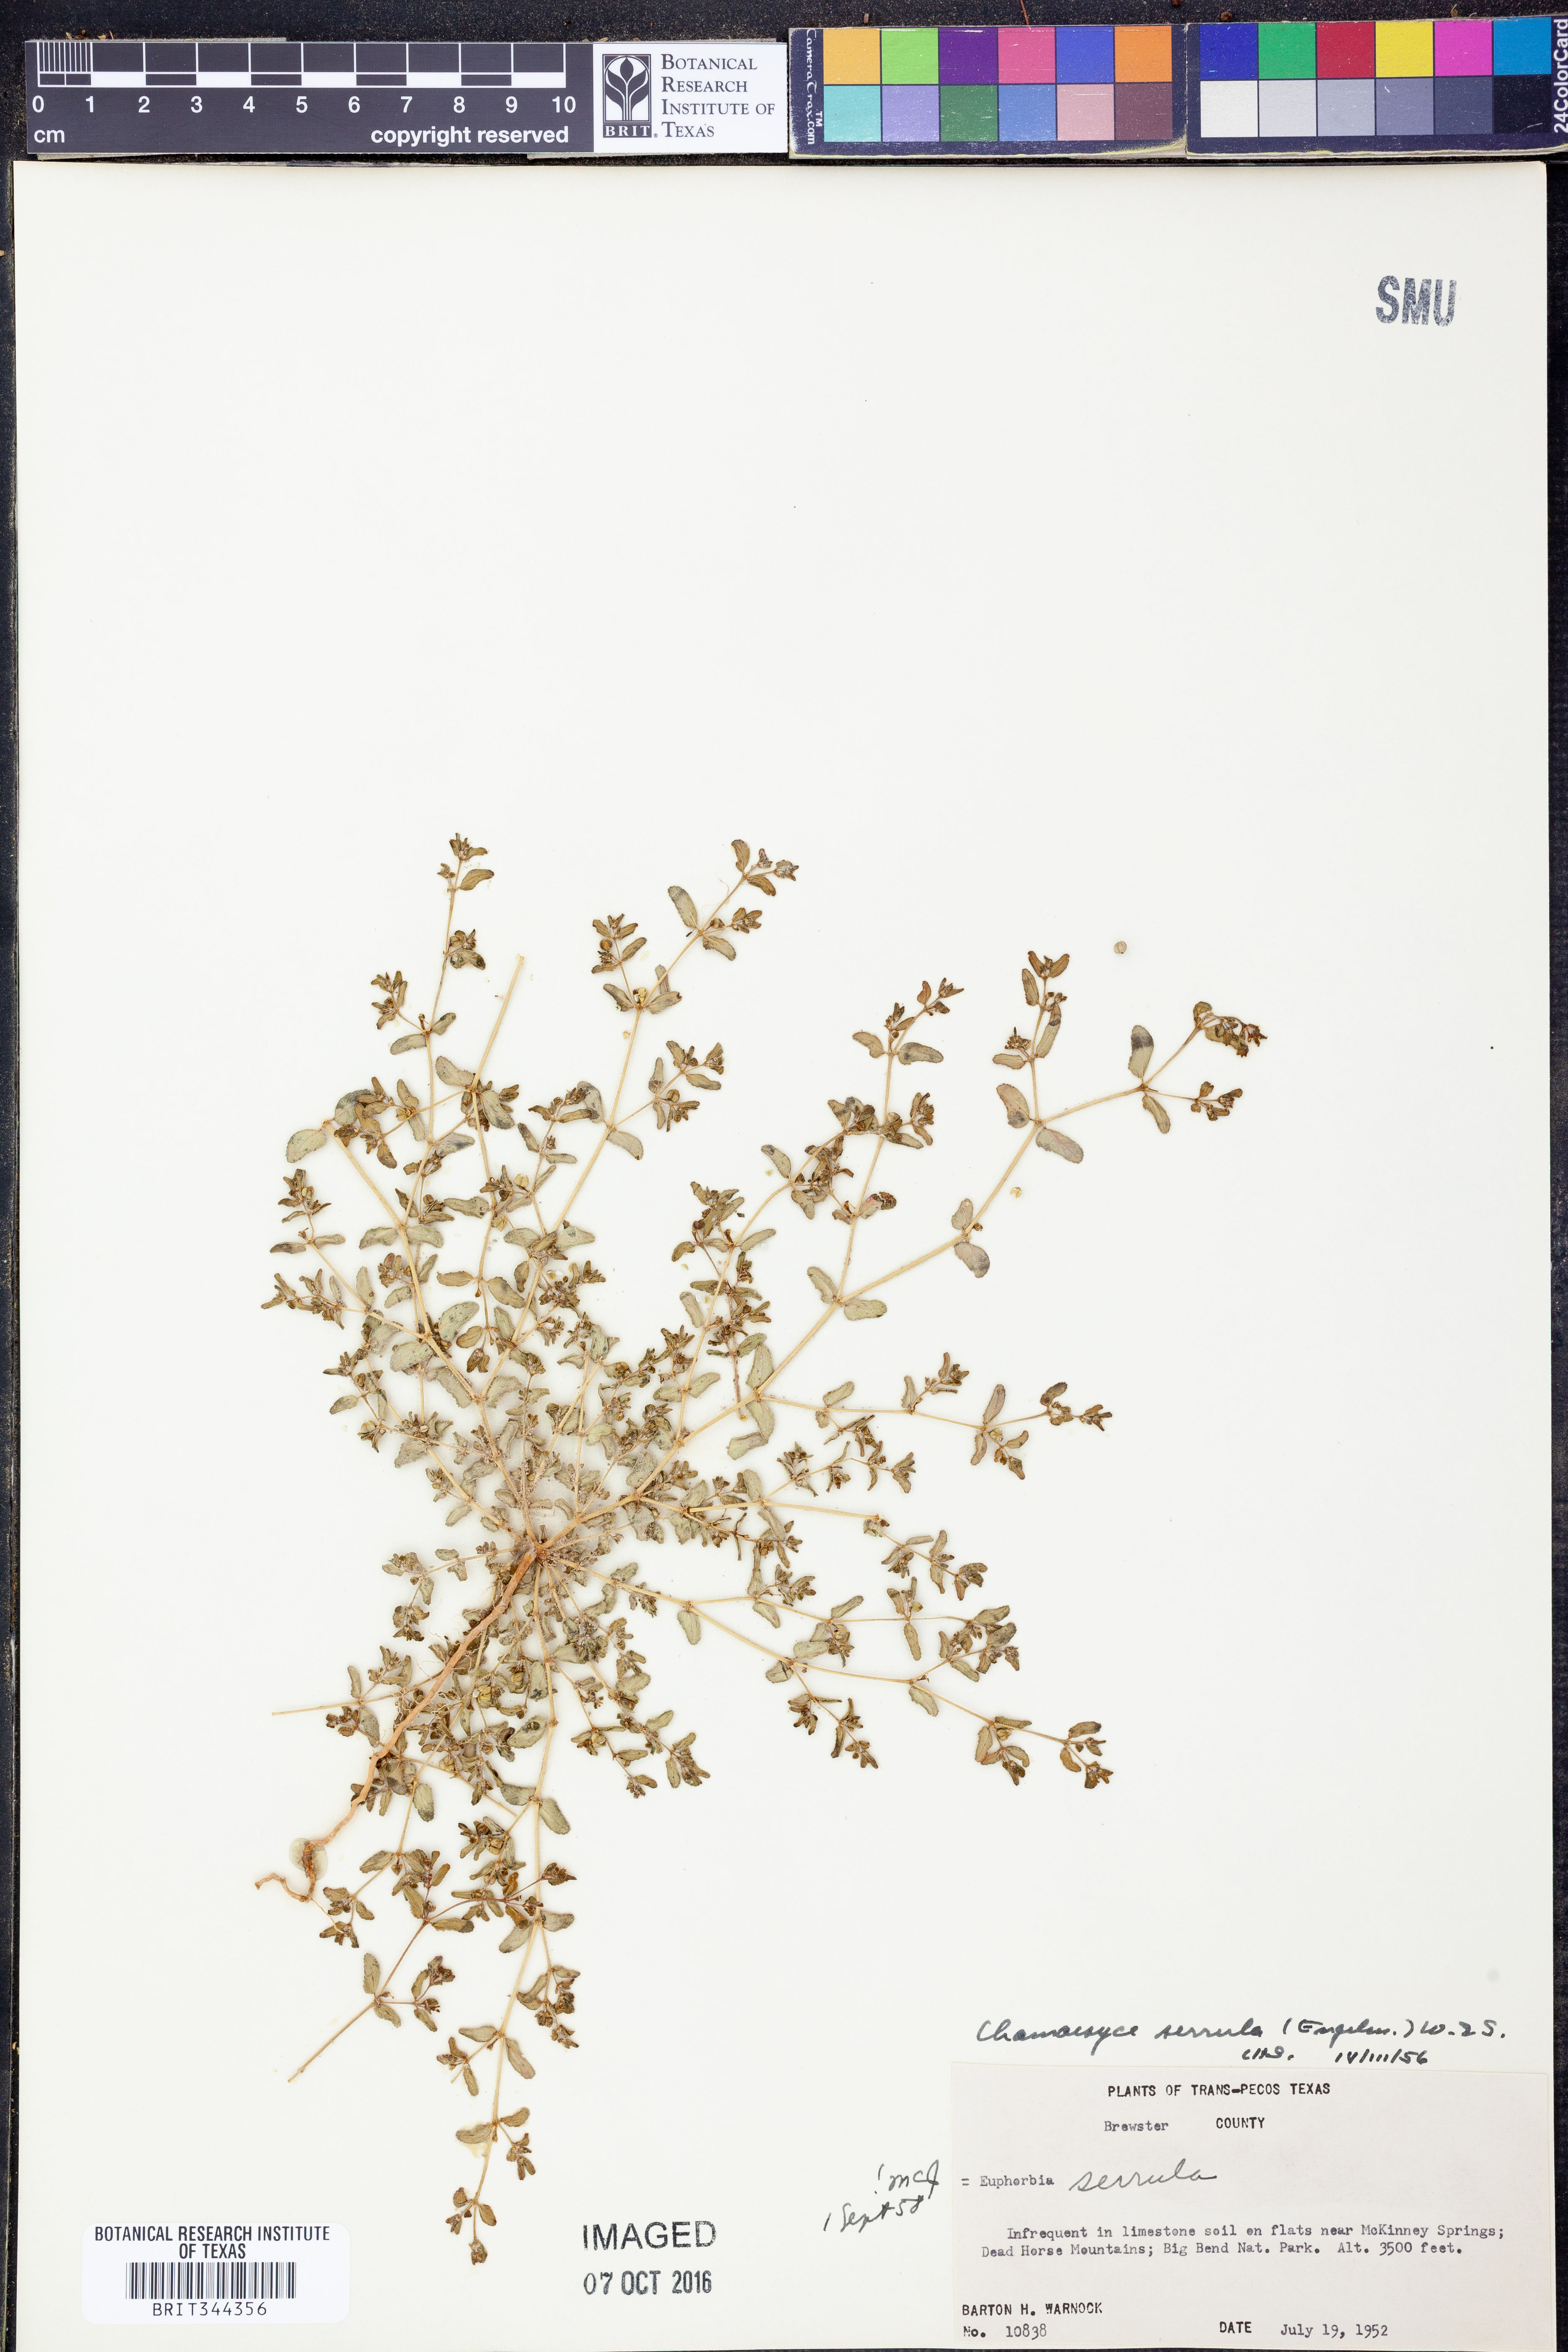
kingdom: Plantae
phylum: Tracheophyta
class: Magnoliopsida
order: Malpighiales
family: Euphorbiaceae
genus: Euphorbia
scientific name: Euphorbia serrula
